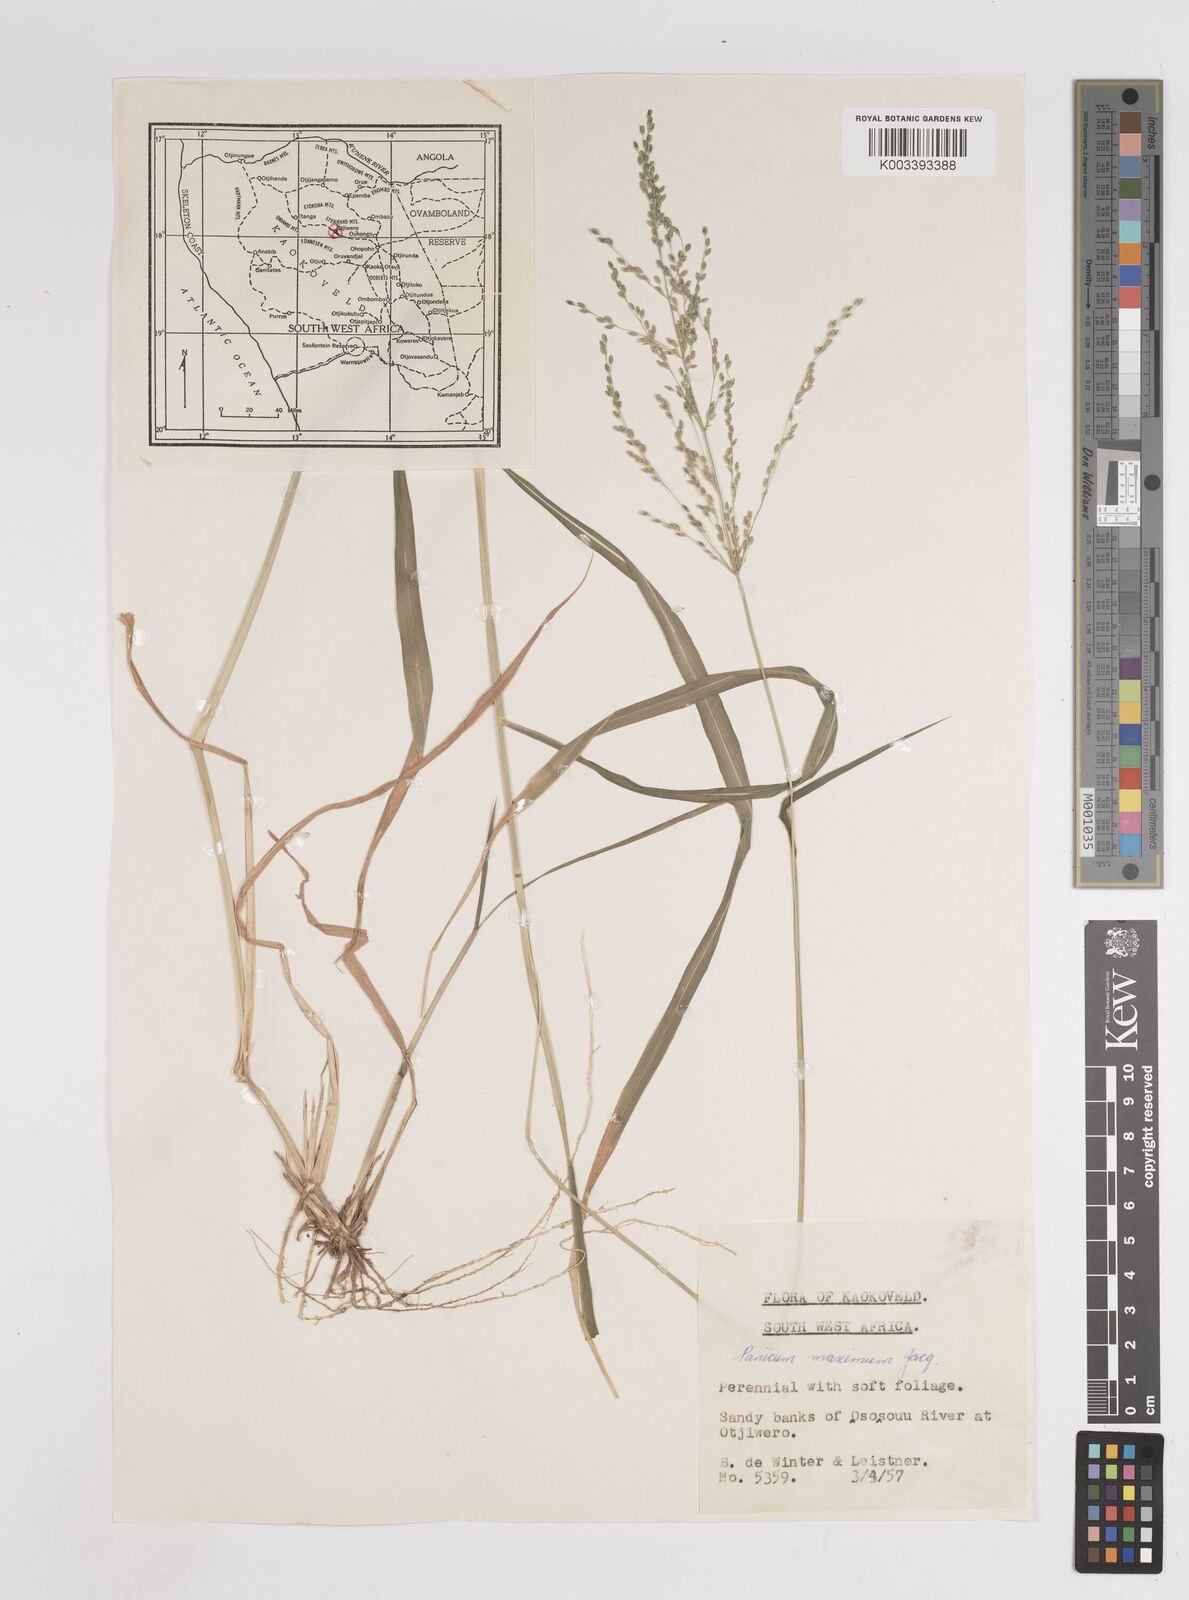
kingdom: Plantae
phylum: Tracheophyta
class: Liliopsida
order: Poales
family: Poaceae
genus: Megathyrsus
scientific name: Megathyrsus maximus
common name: Guineagrass
